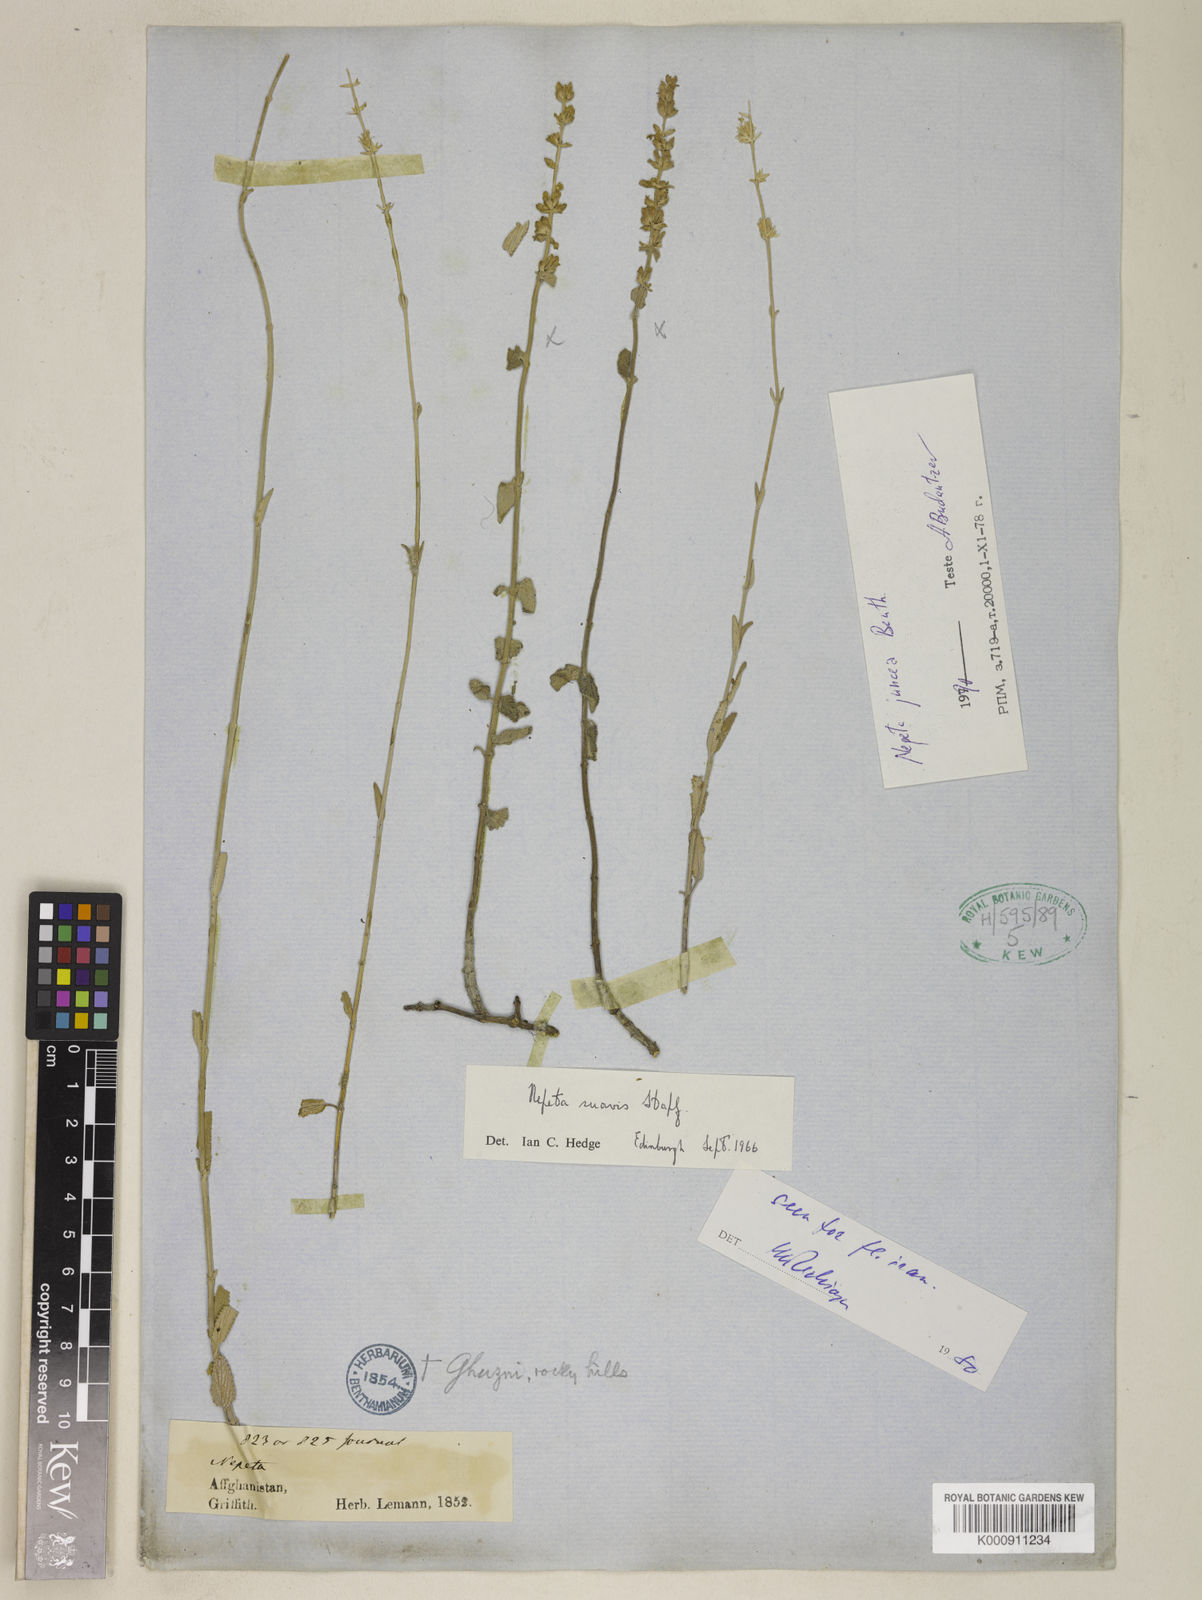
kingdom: Plantae
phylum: Tracheophyta
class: Magnoliopsida
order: Lamiales
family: Lamiaceae
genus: Nepeta
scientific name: Nepeta suavis
